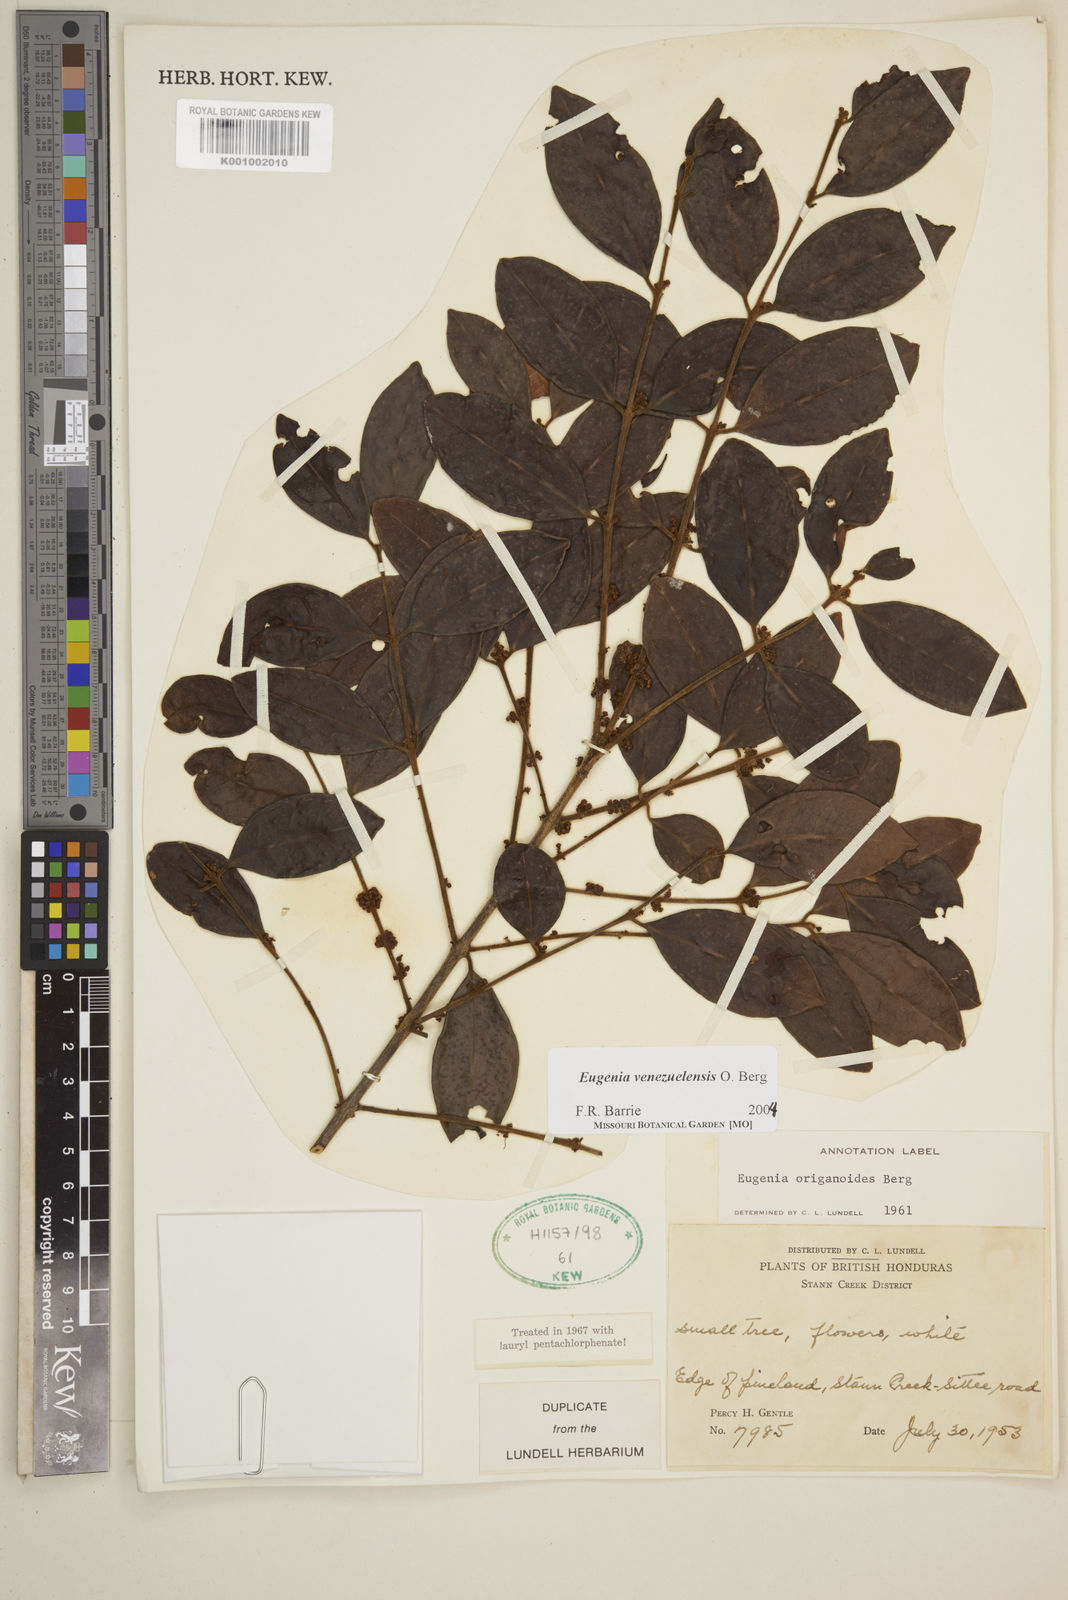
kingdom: Plantae
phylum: Tracheophyta
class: Magnoliopsida
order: Myrtales
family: Myrtaceae
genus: Eugenia
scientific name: Eugenia venezuelensis
